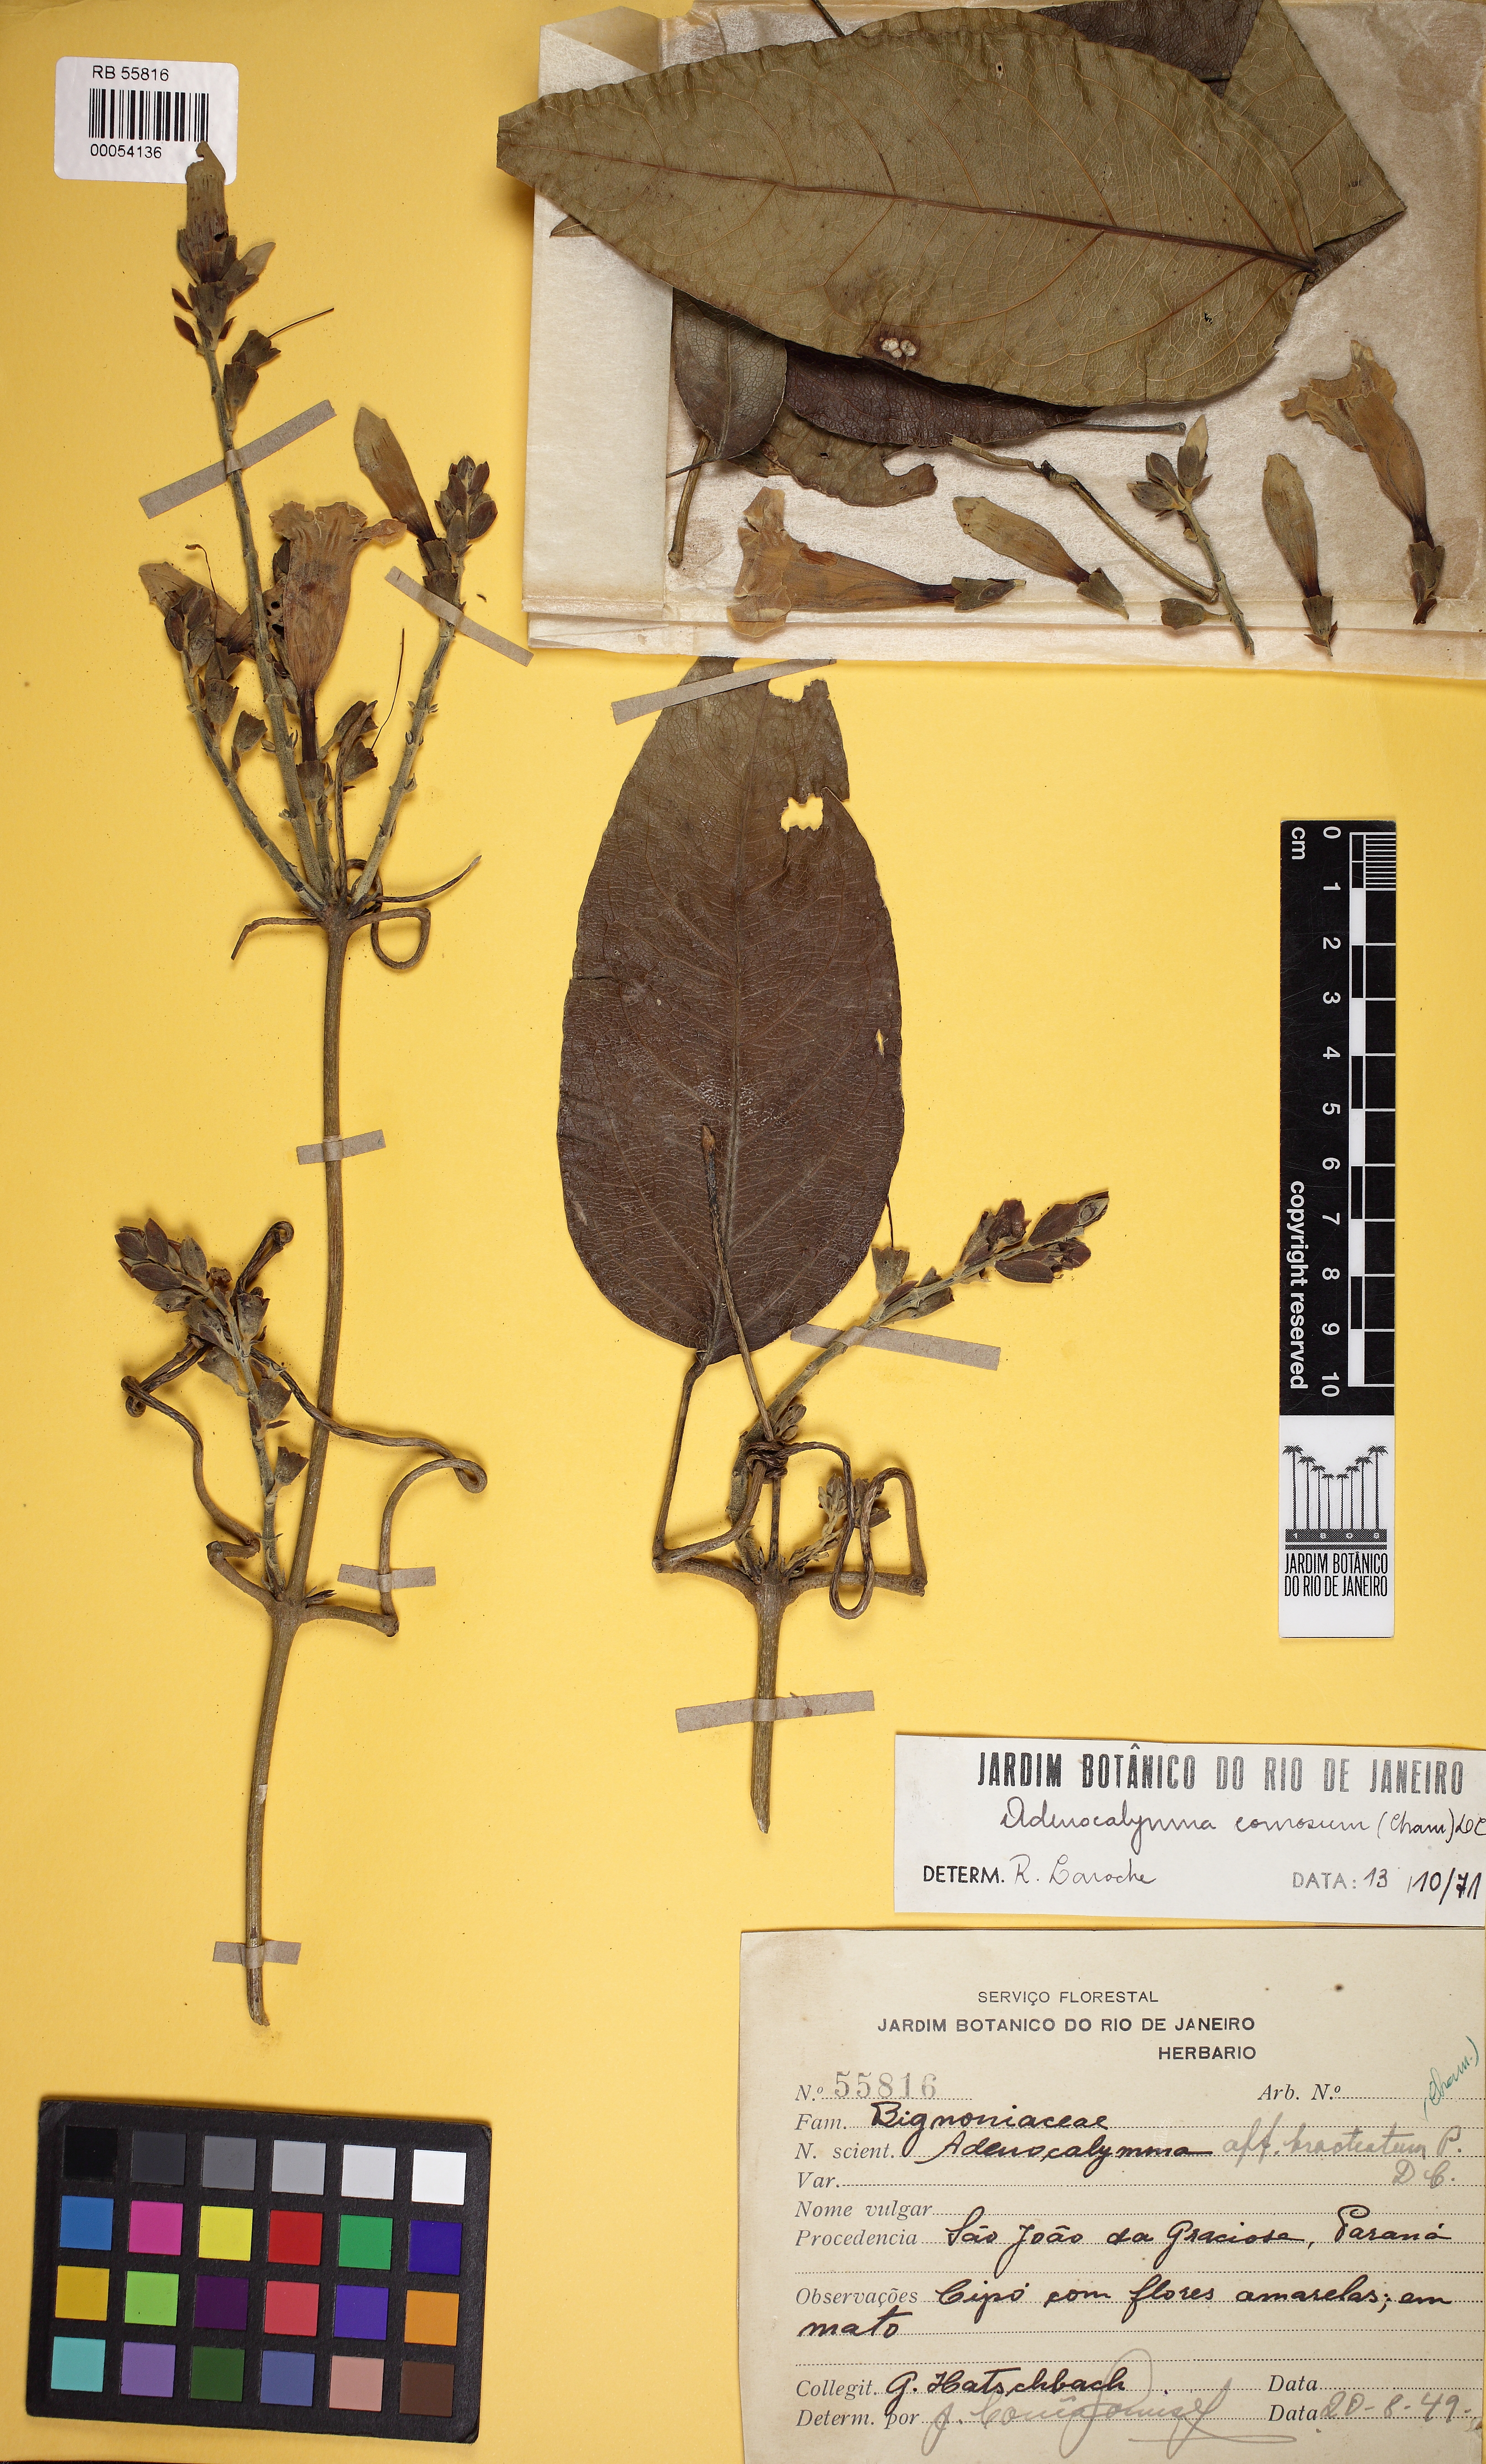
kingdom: Plantae
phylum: Tracheophyta
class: Magnoliopsida
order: Lamiales
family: Bignoniaceae
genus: Adenocalymma
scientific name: Adenocalymma acutissimum
